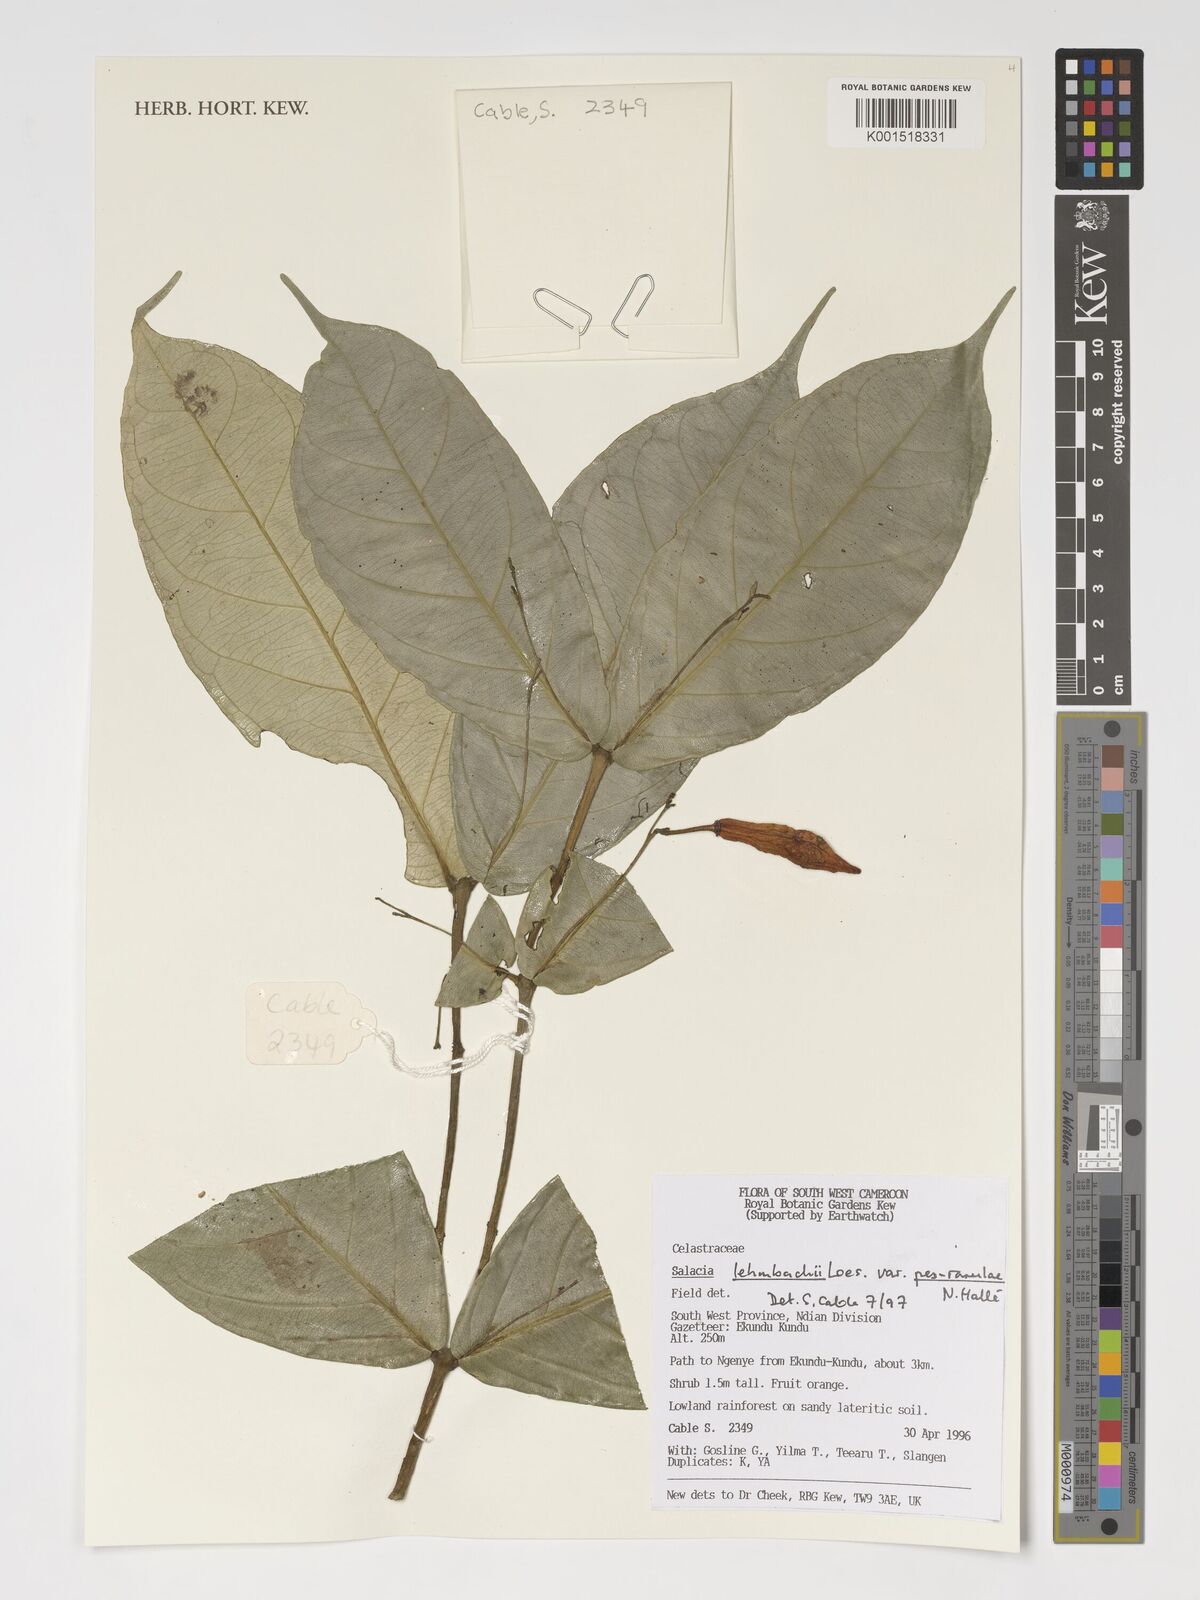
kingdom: Plantae
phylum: Tracheophyta
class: Magnoliopsida
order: Celastrales
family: Celastraceae
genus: Salacia
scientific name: Salacia lehmbachii
